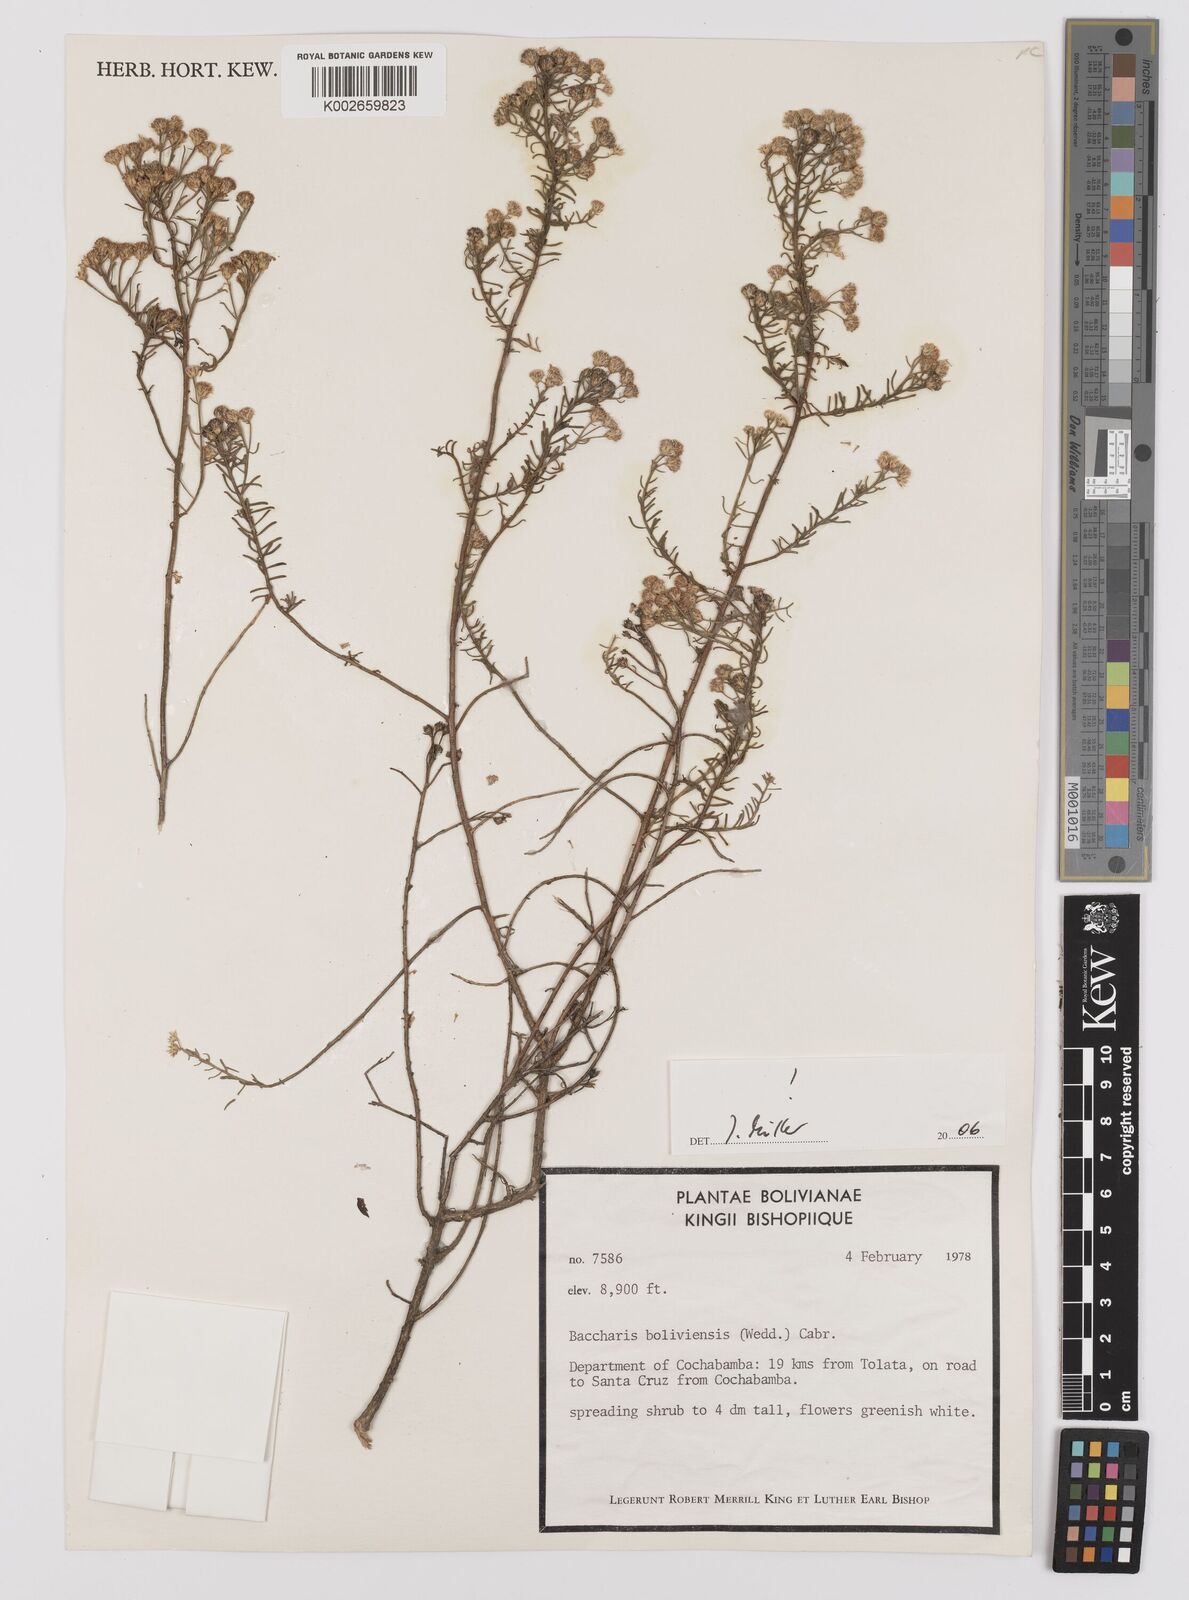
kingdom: Plantae
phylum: Tracheophyta
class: Magnoliopsida
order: Asterales
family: Asteraceae
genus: Baccharis
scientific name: Baccharis bolivensis
